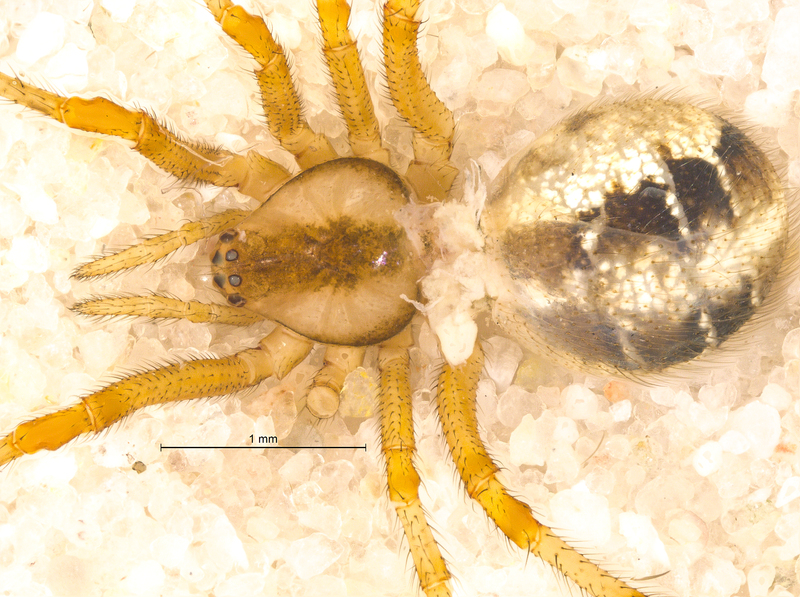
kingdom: Animalia
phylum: Arthropoda
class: Arachnida
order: Araneae
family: Theridiidae
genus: Phylloneta
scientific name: Phylloneta sisyphia
